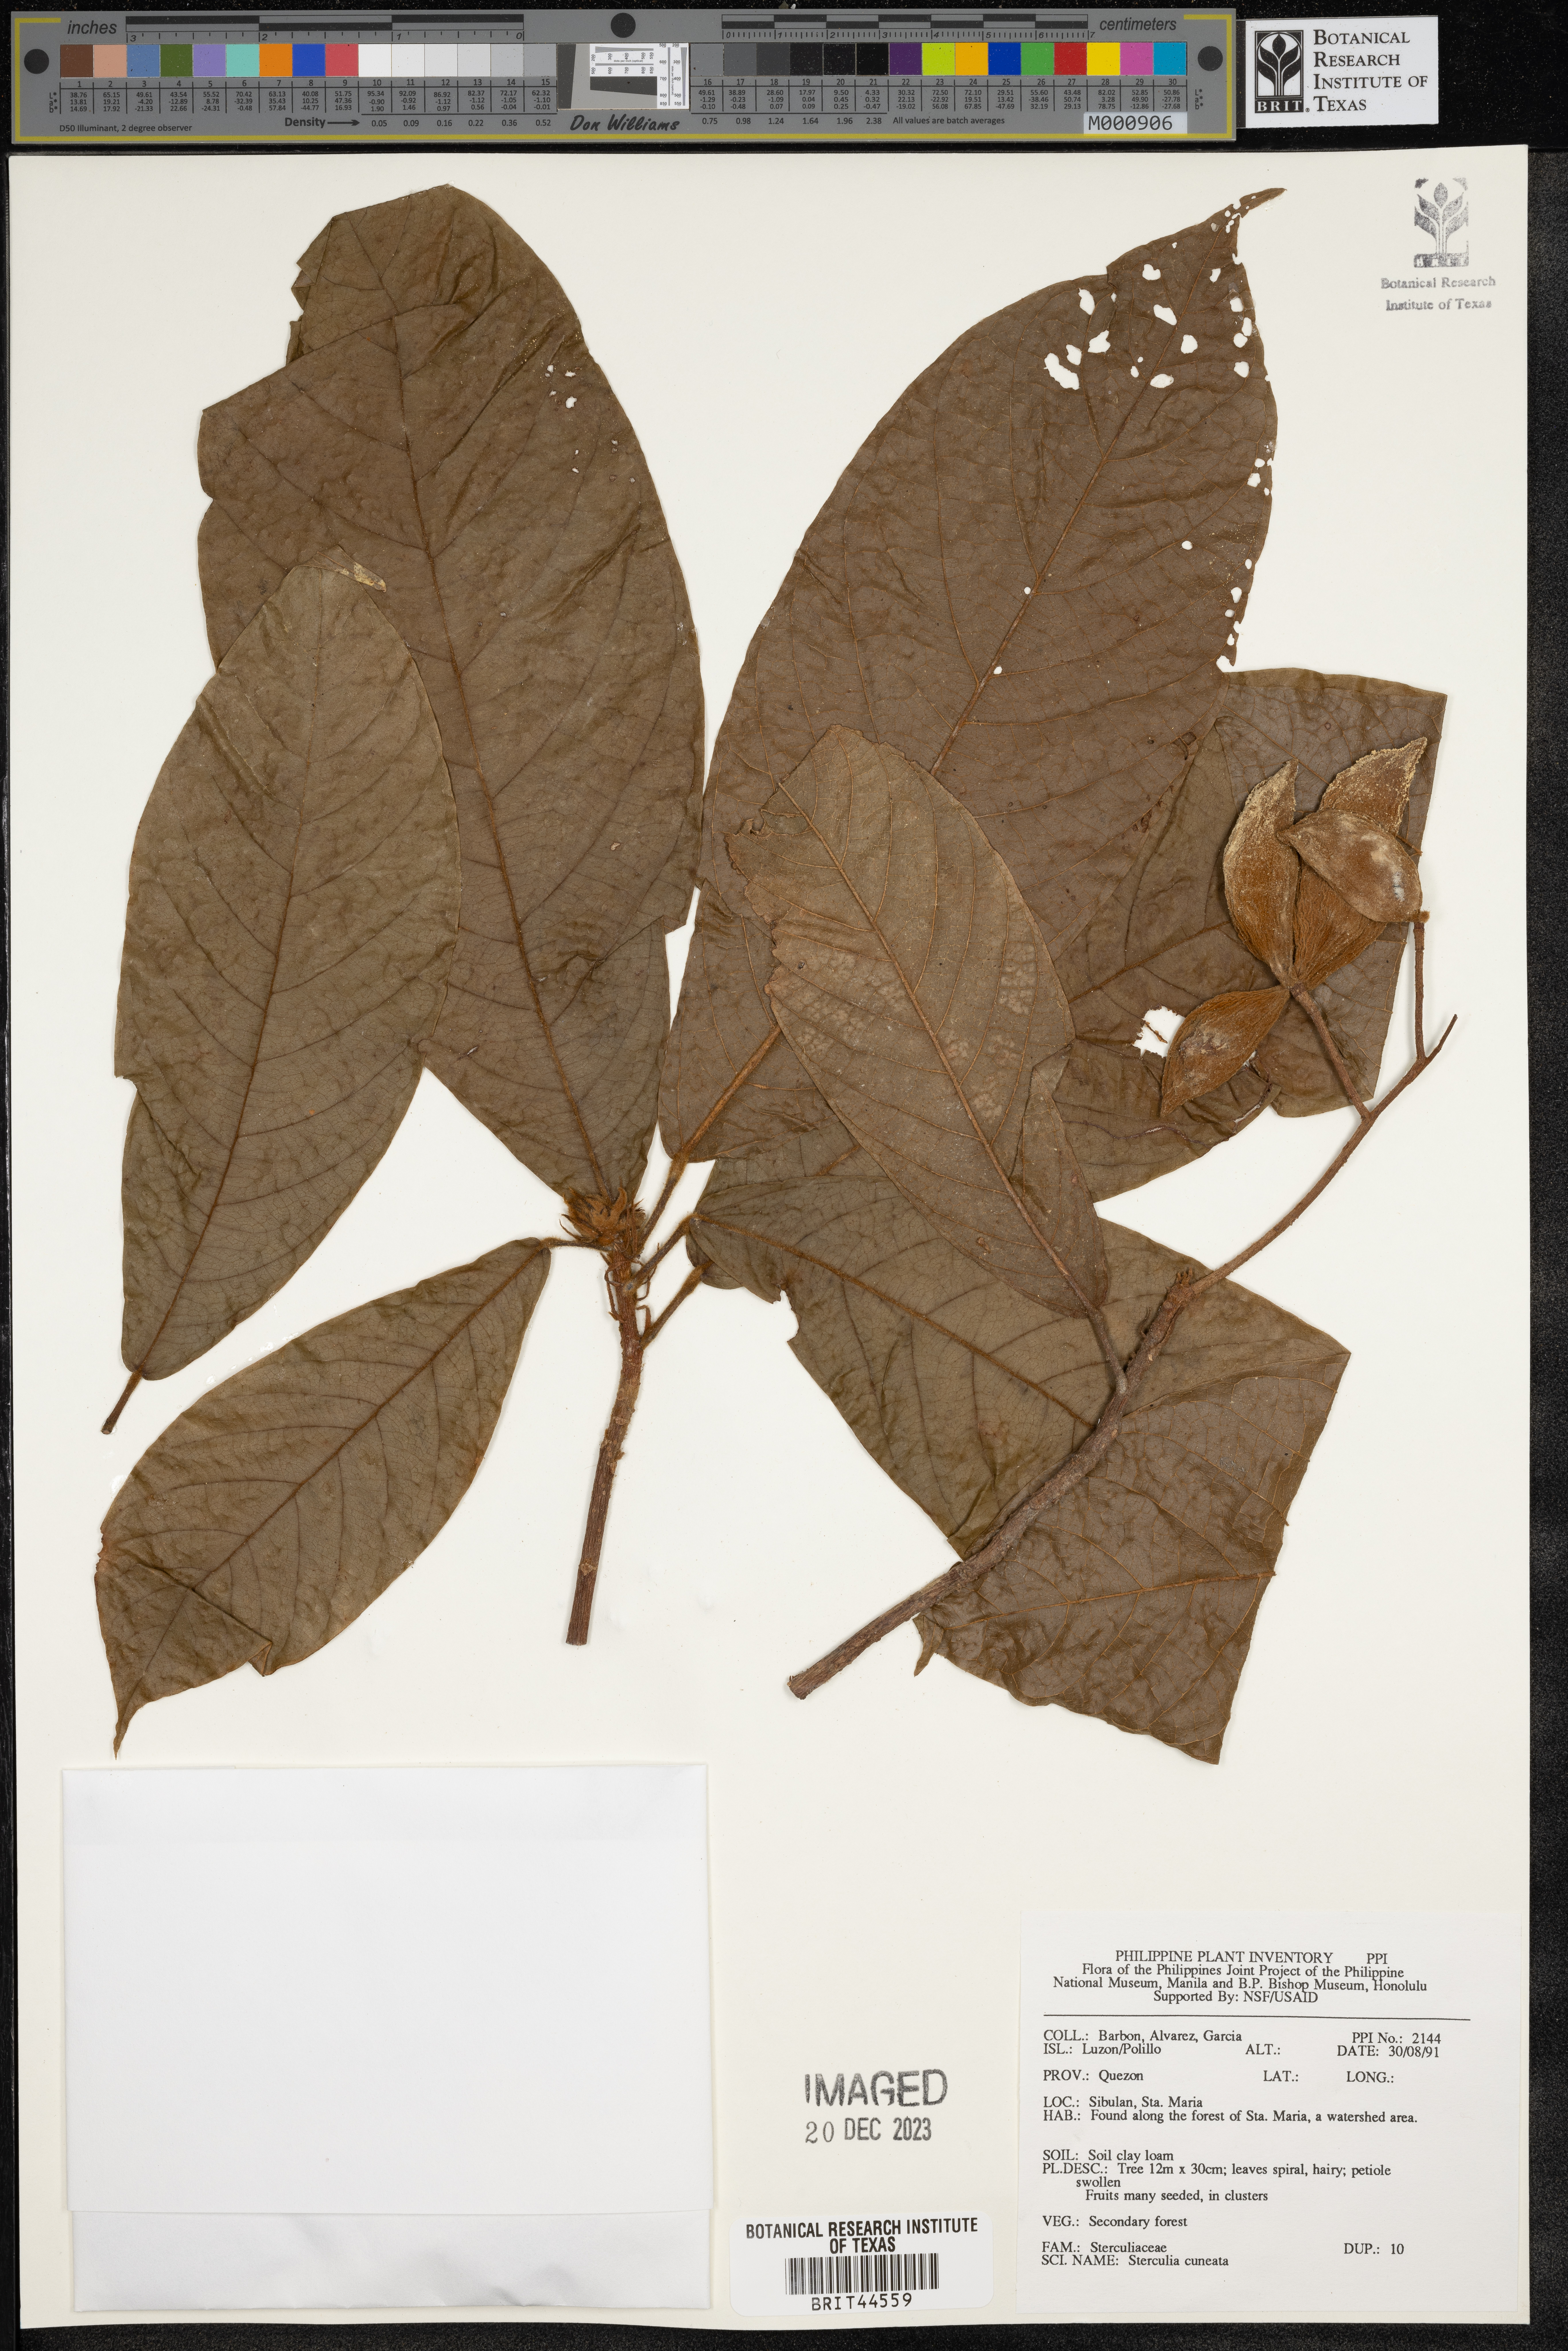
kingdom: Plantae
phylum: Tracheophyta
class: Magnoliopsida
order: Malvales
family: Malvaceae
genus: Sterculia
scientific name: Sterculia cuneata
